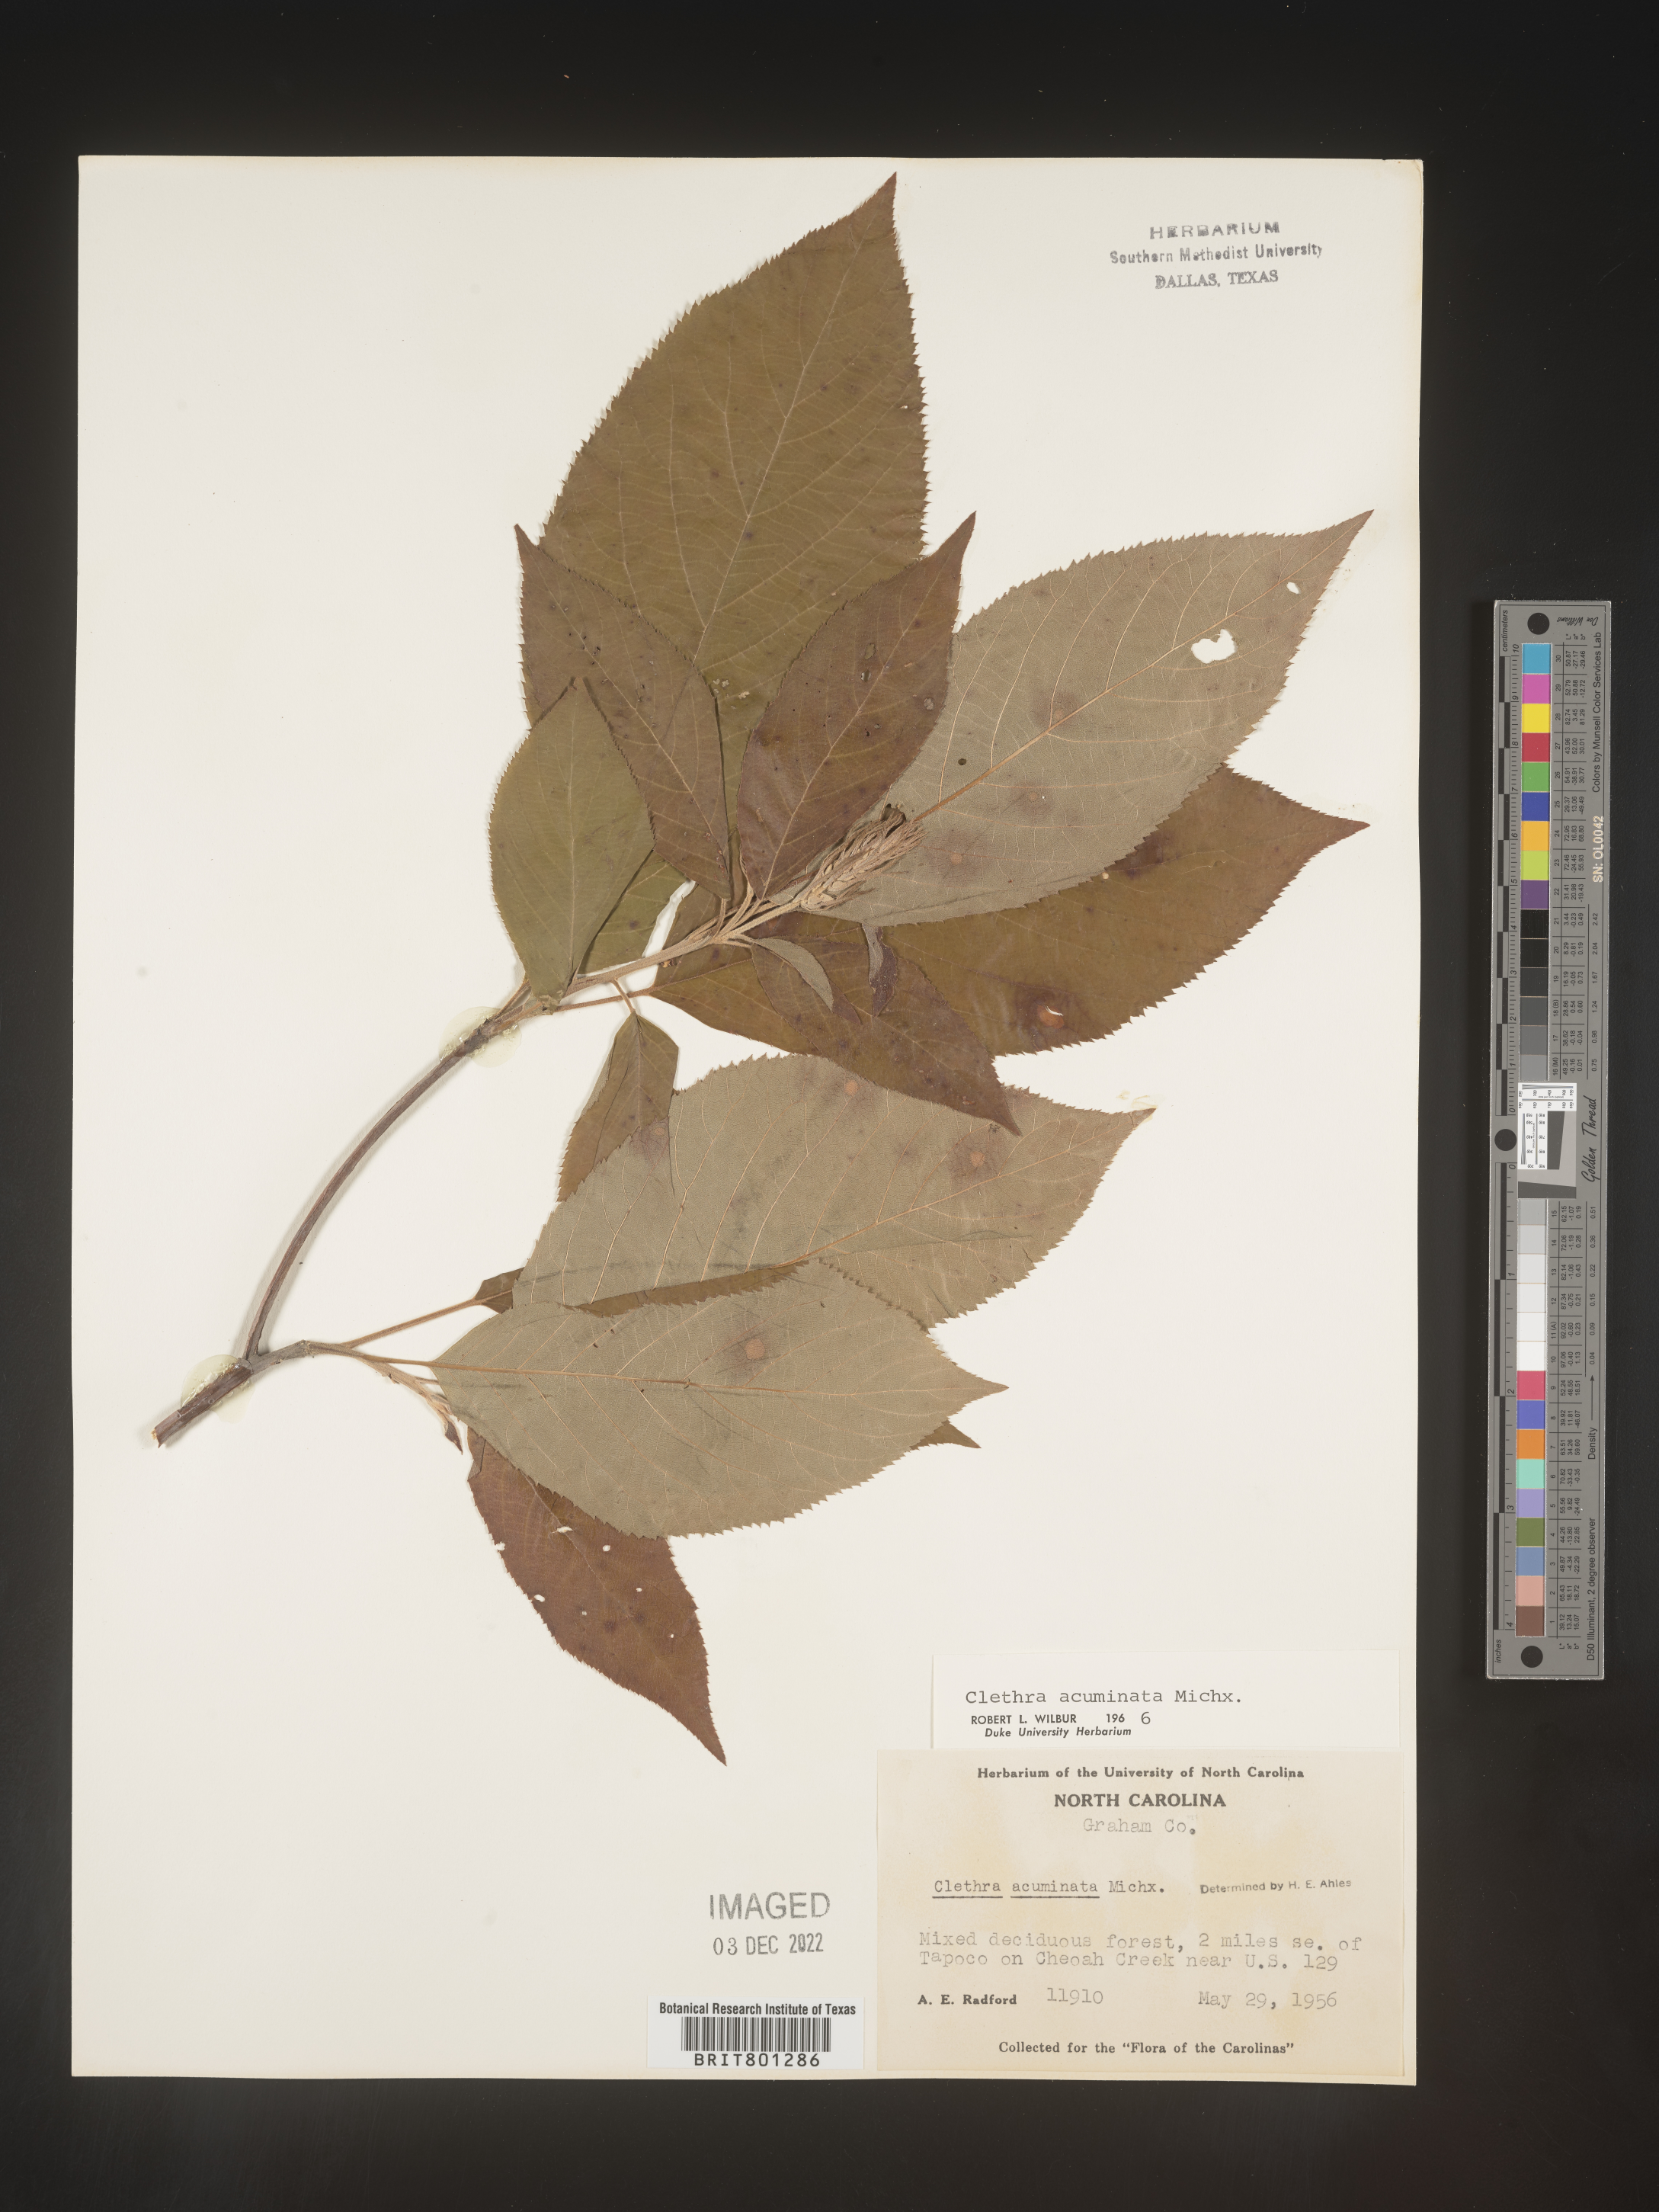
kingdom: Plantae
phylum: Tracheophyta
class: Magnoliopsida
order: Ericales
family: Clethraceae
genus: Clethra
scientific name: Clethra acuminata
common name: Mountain sweet pepperbush
